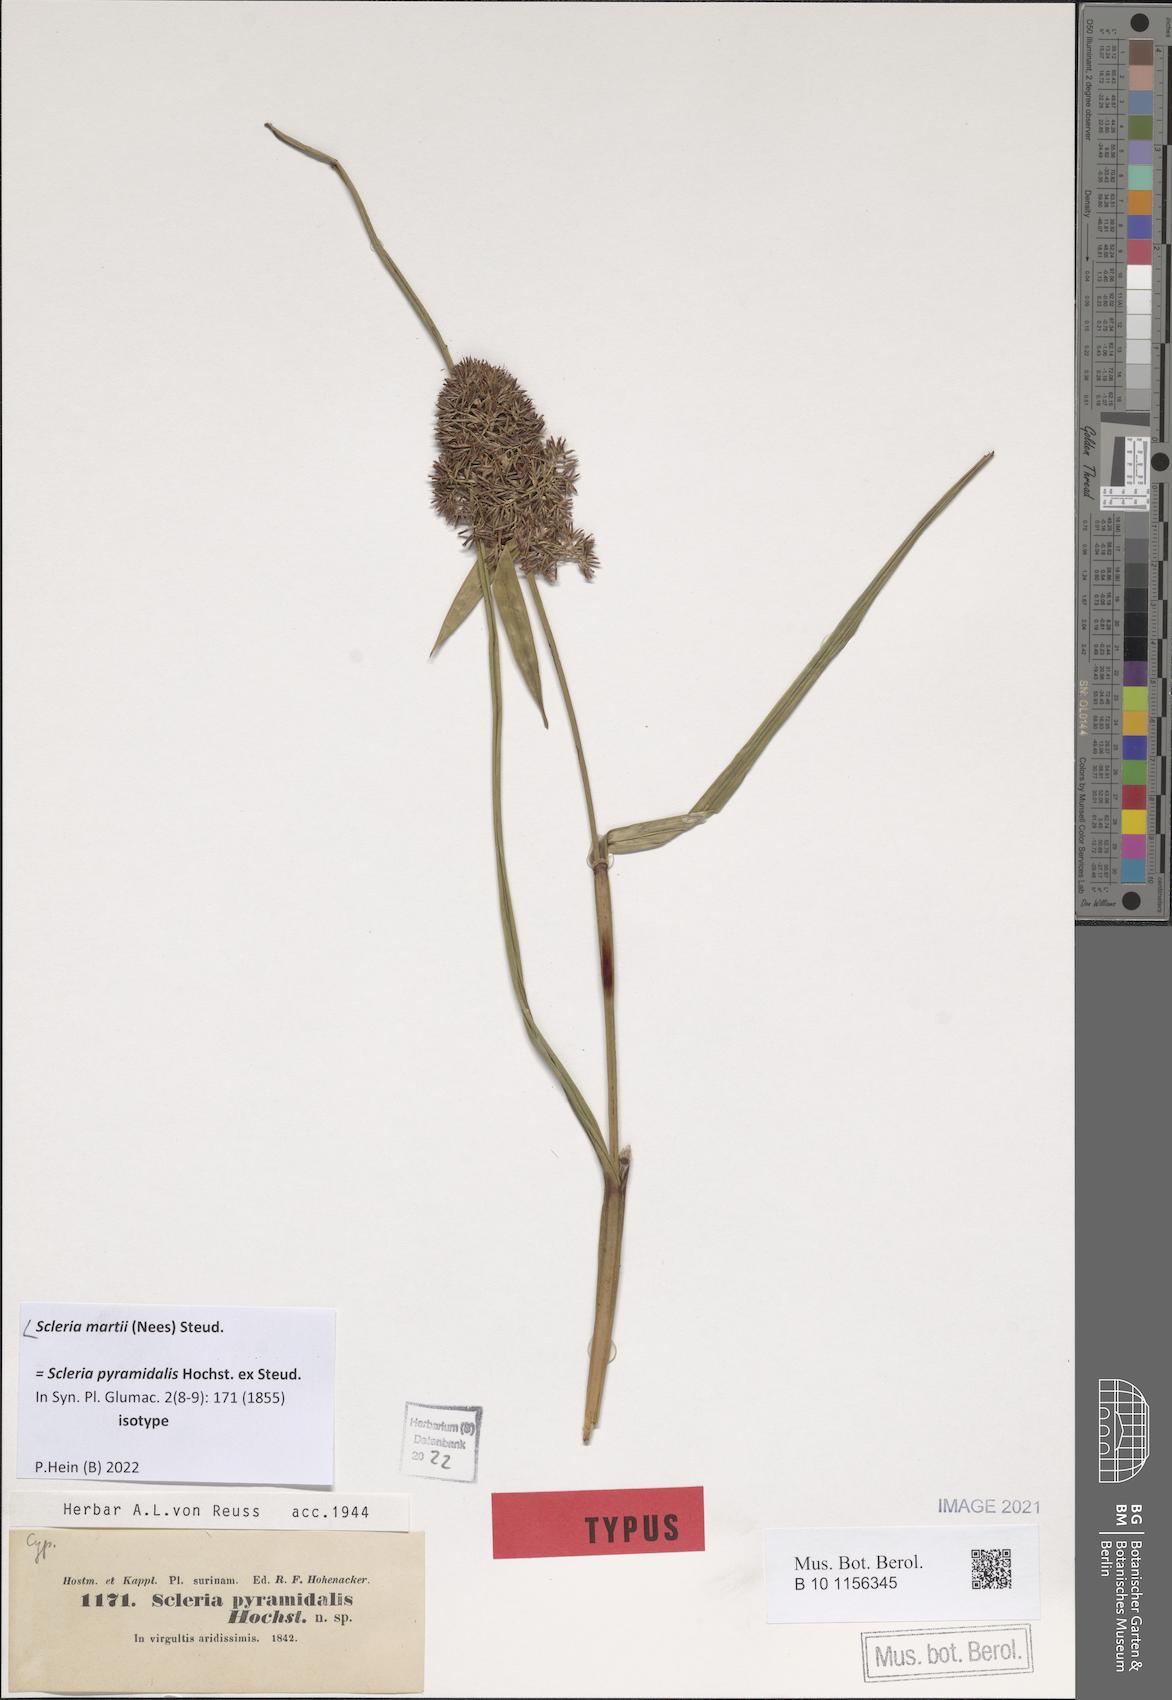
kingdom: Plantae
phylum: Tracheophyta
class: Liliopsida
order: Poales
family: Cyperaceae
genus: Scleria
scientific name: Scleria martii
